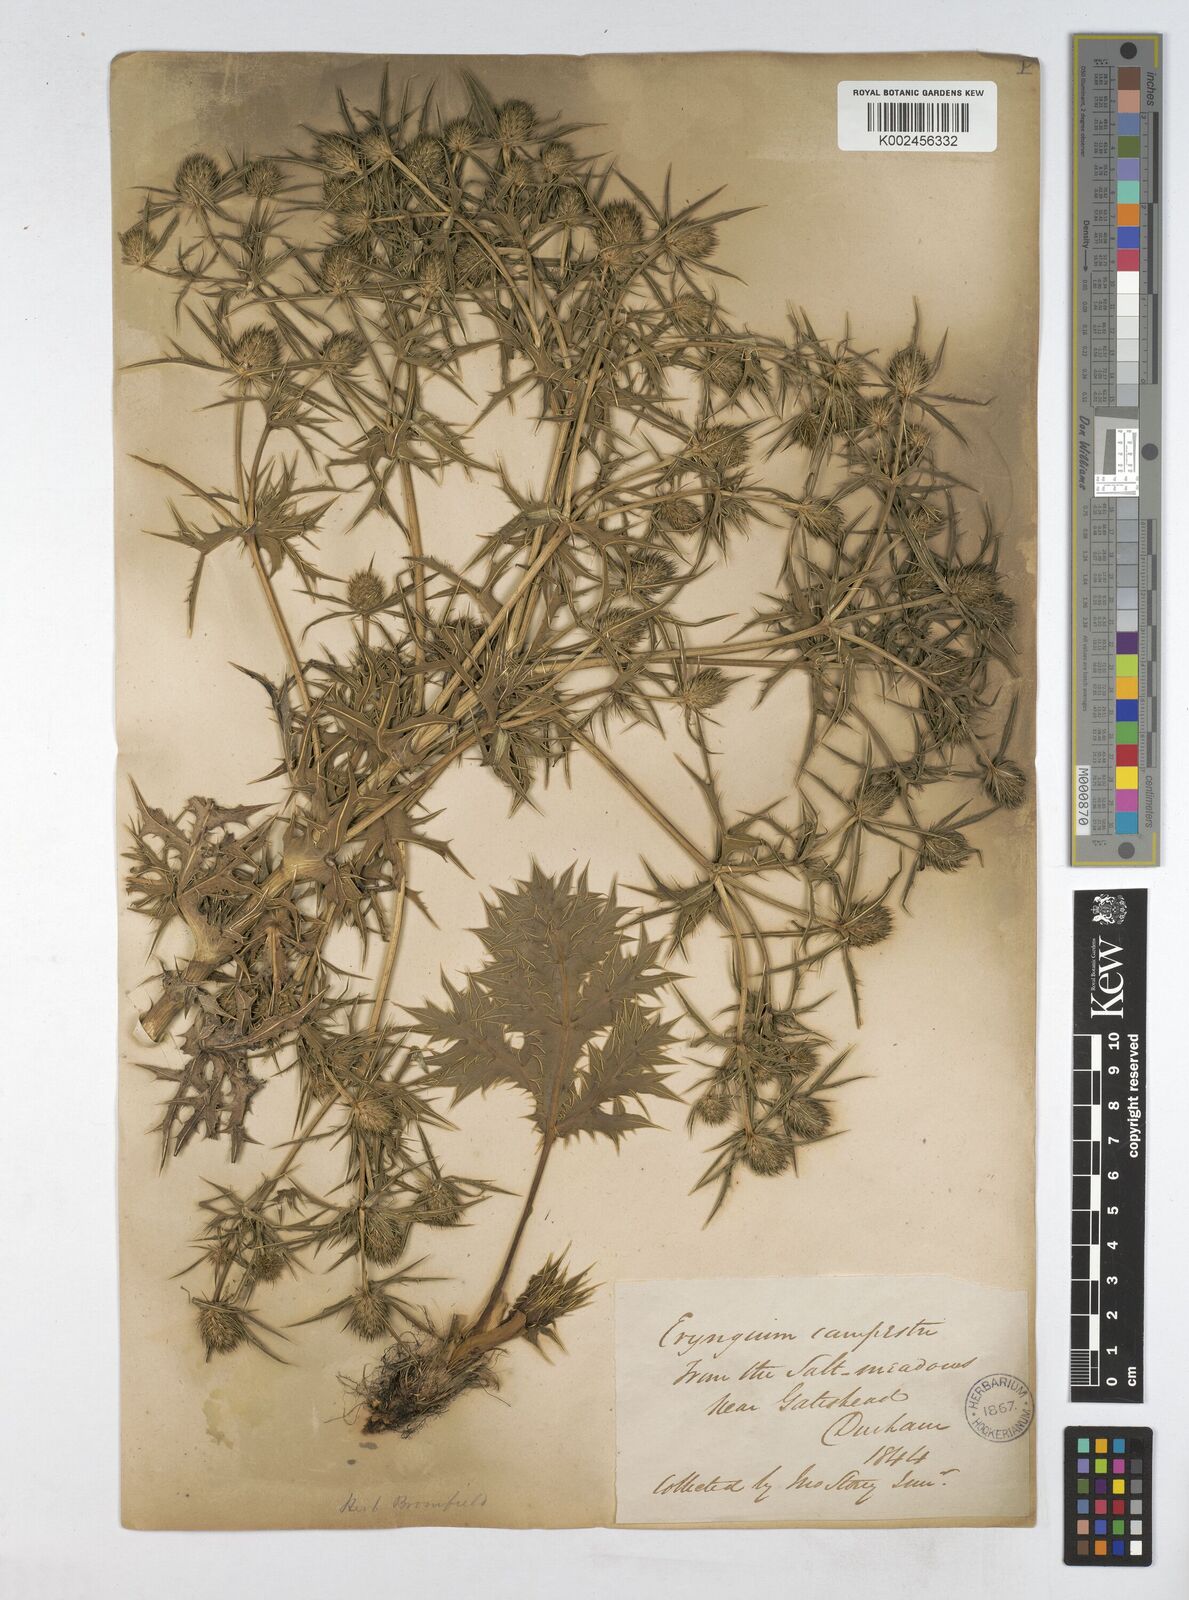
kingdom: Plantae
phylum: Tracheophyta
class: Magnoliopsida
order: Apiales
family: Apiaceae
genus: Eryngium
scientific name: Eryngium campestre
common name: Field eryngo
